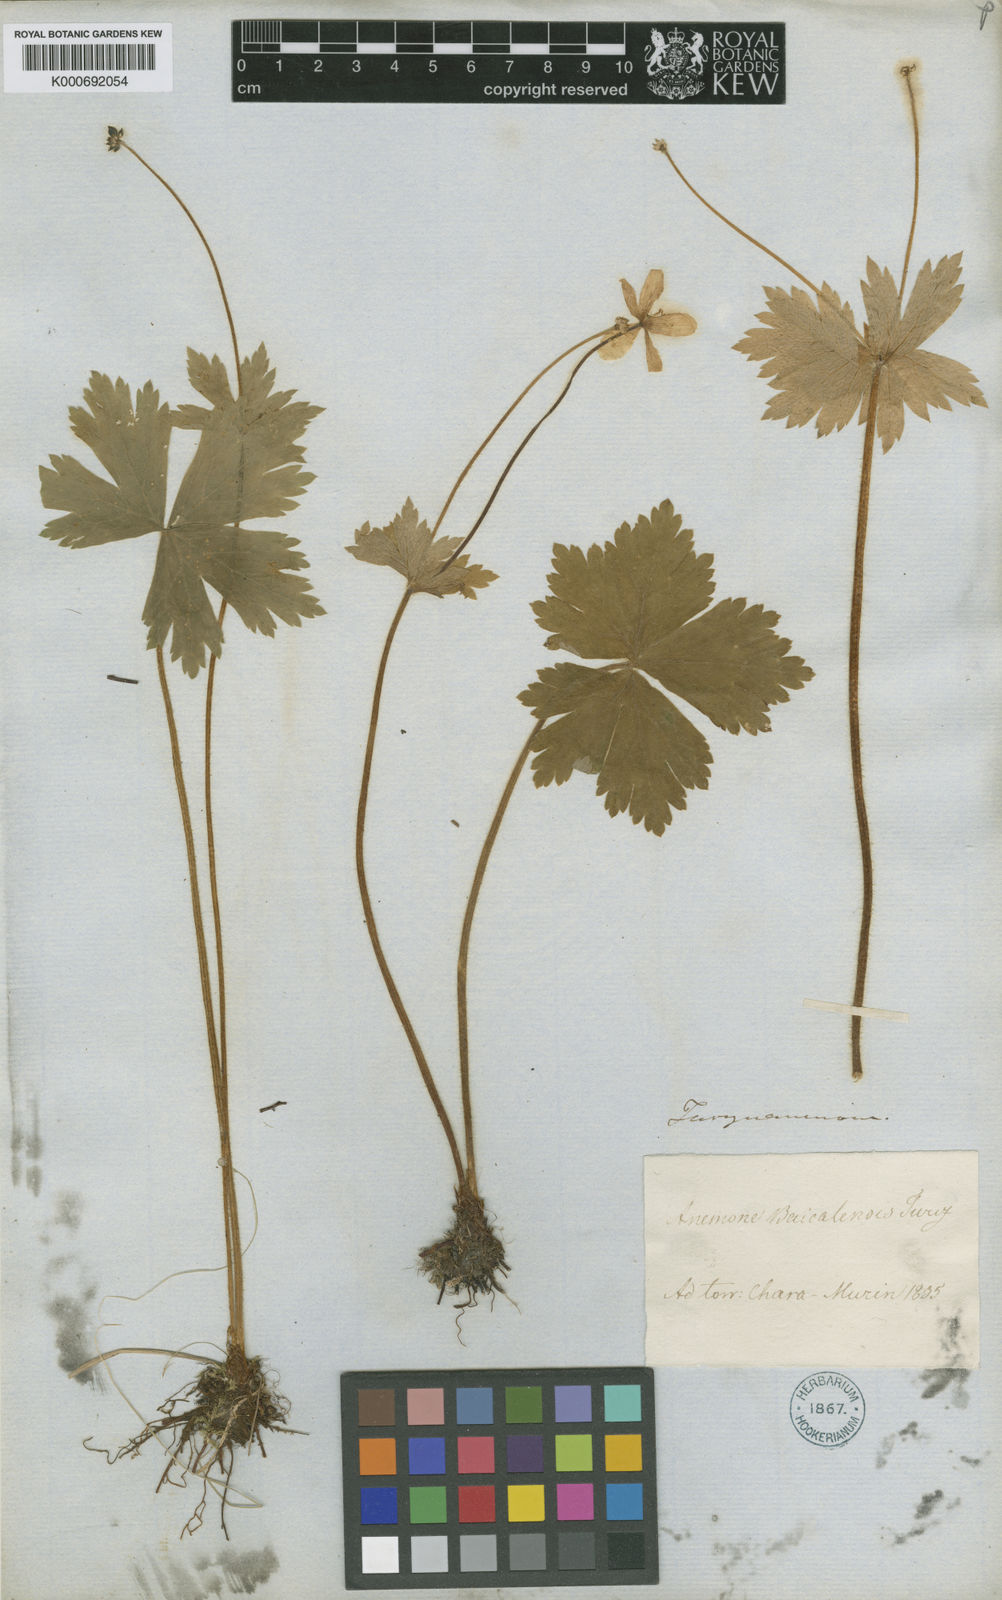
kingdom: Plantae
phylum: Tracheophyta
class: Magnoliopsida
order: Ranunculales
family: Ranunculaceae
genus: Anemonastrum
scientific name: Anemonastrum baicalense
